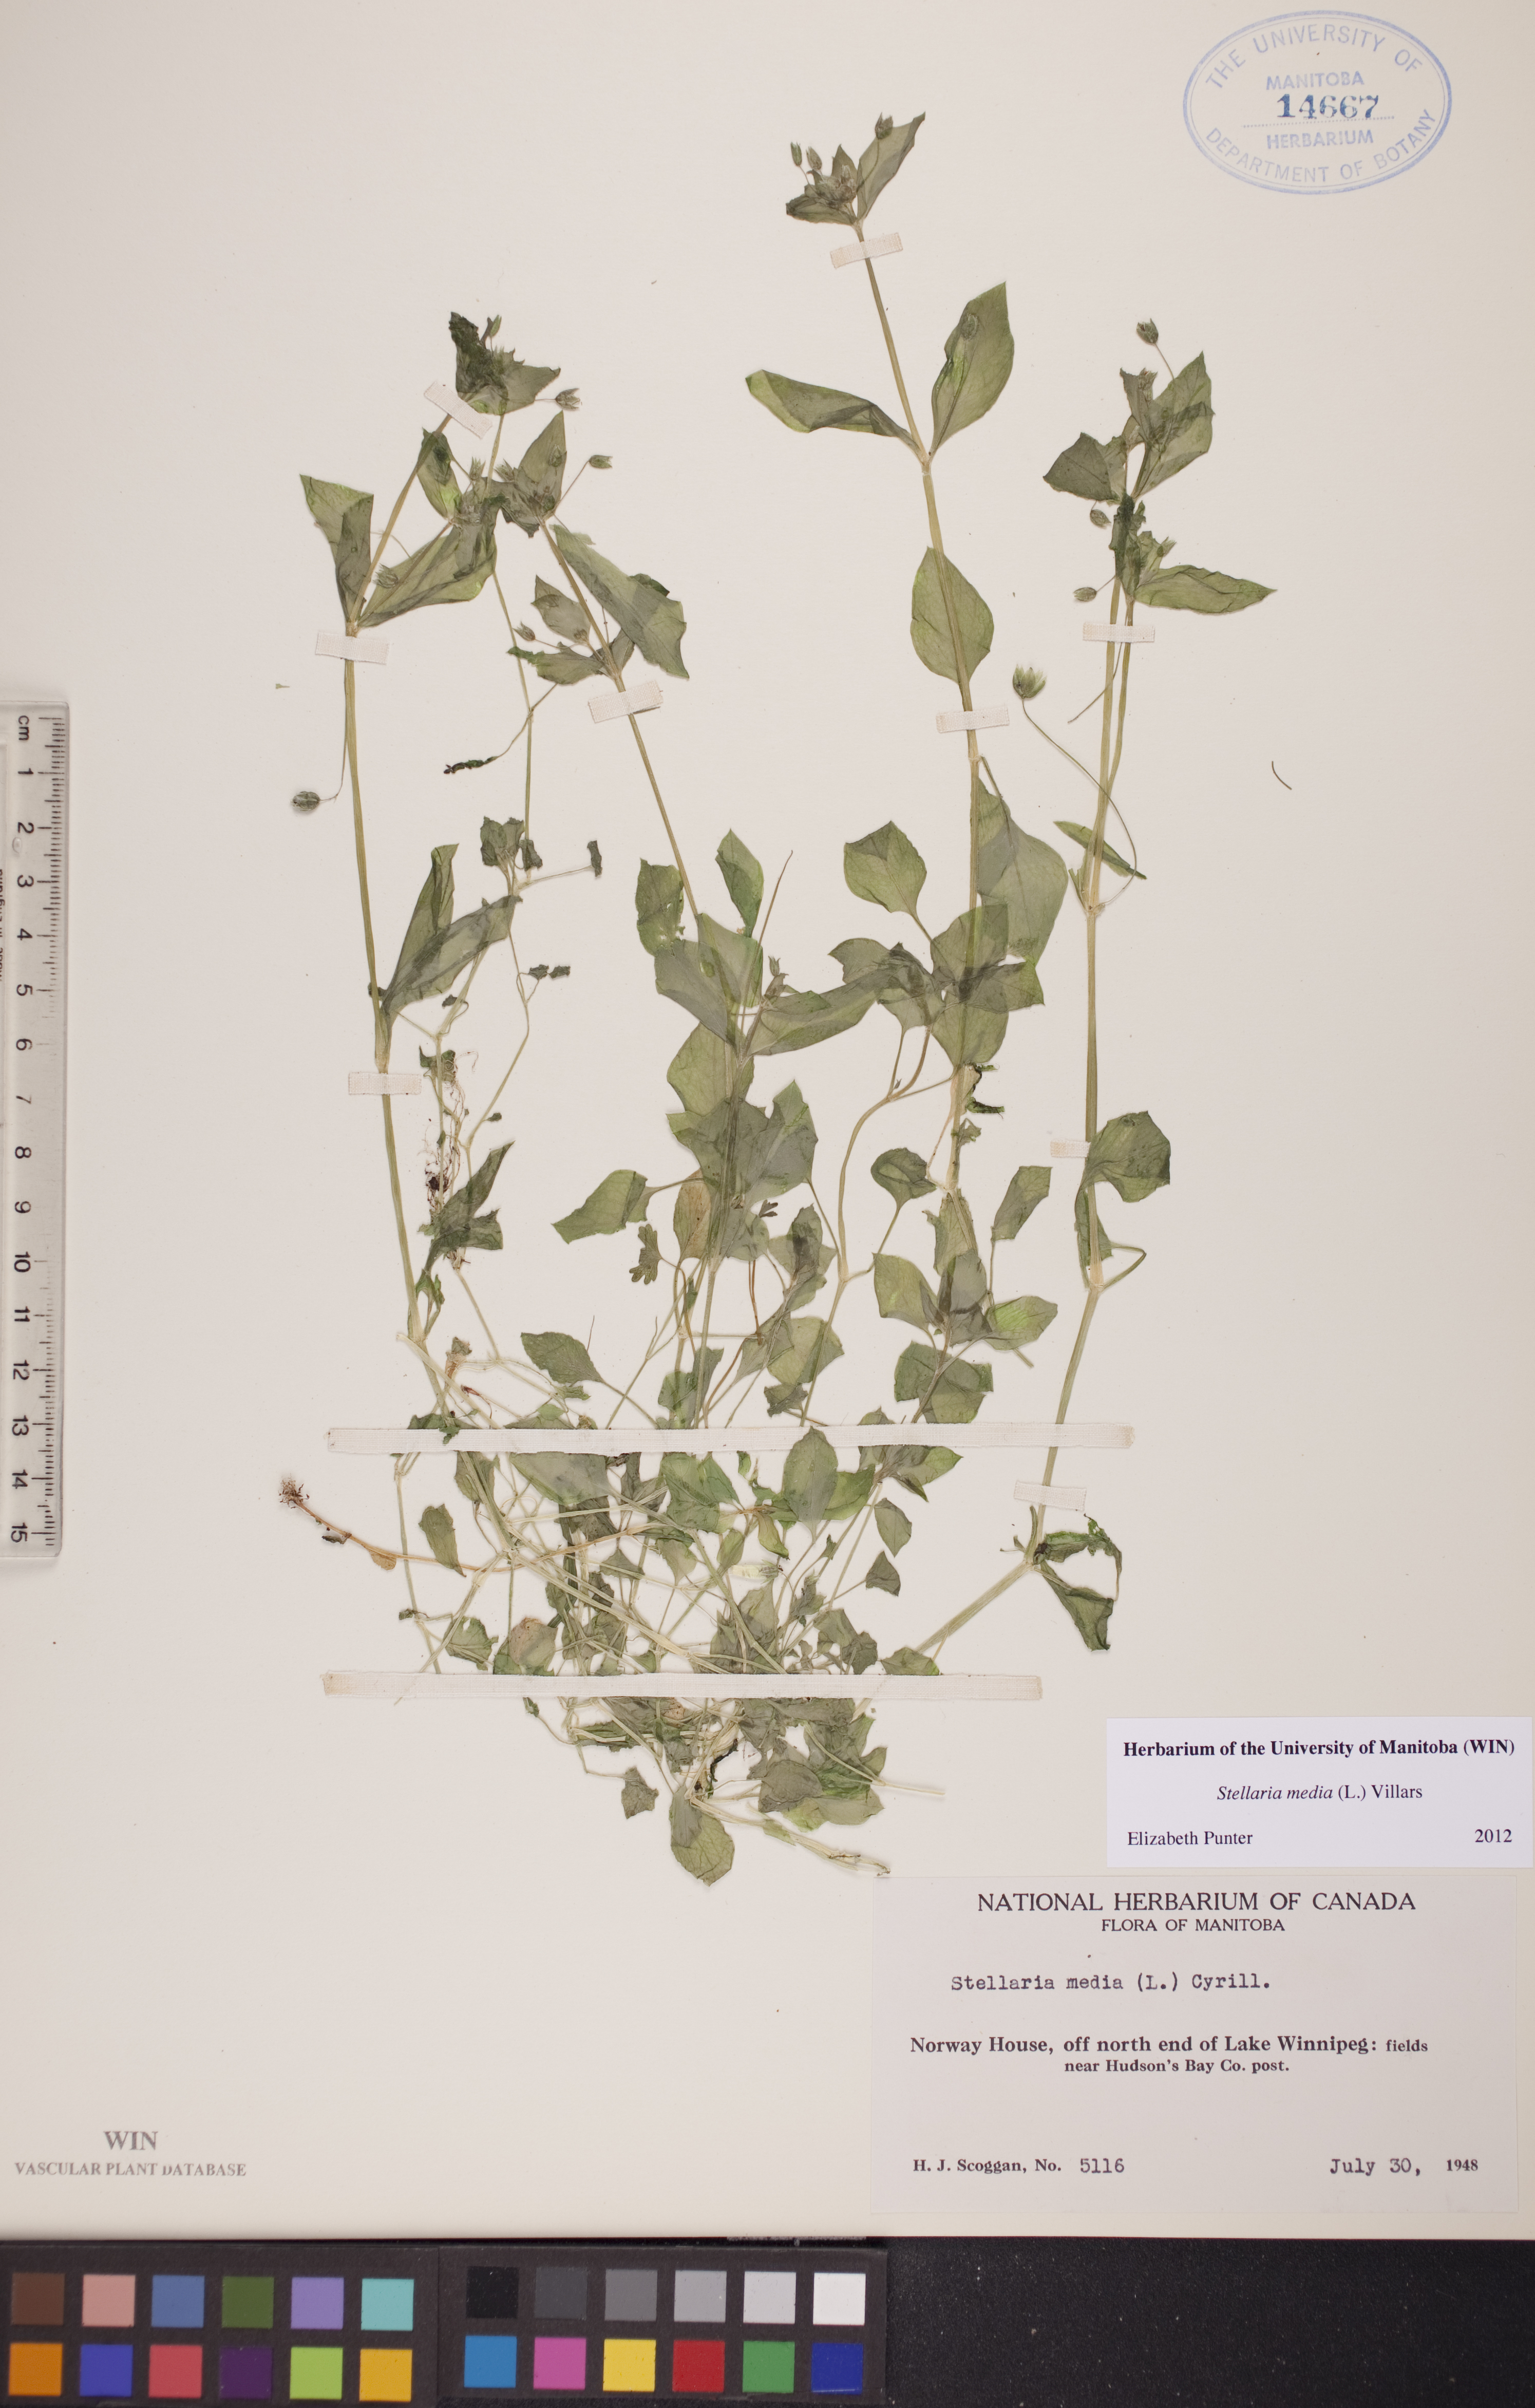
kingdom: Plantae
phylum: Tracheophyta
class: Magnoliopsida
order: Caryophyllales
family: Caryophyllaceae
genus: Stellaria
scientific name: Stellaria media
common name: Common chickweed
